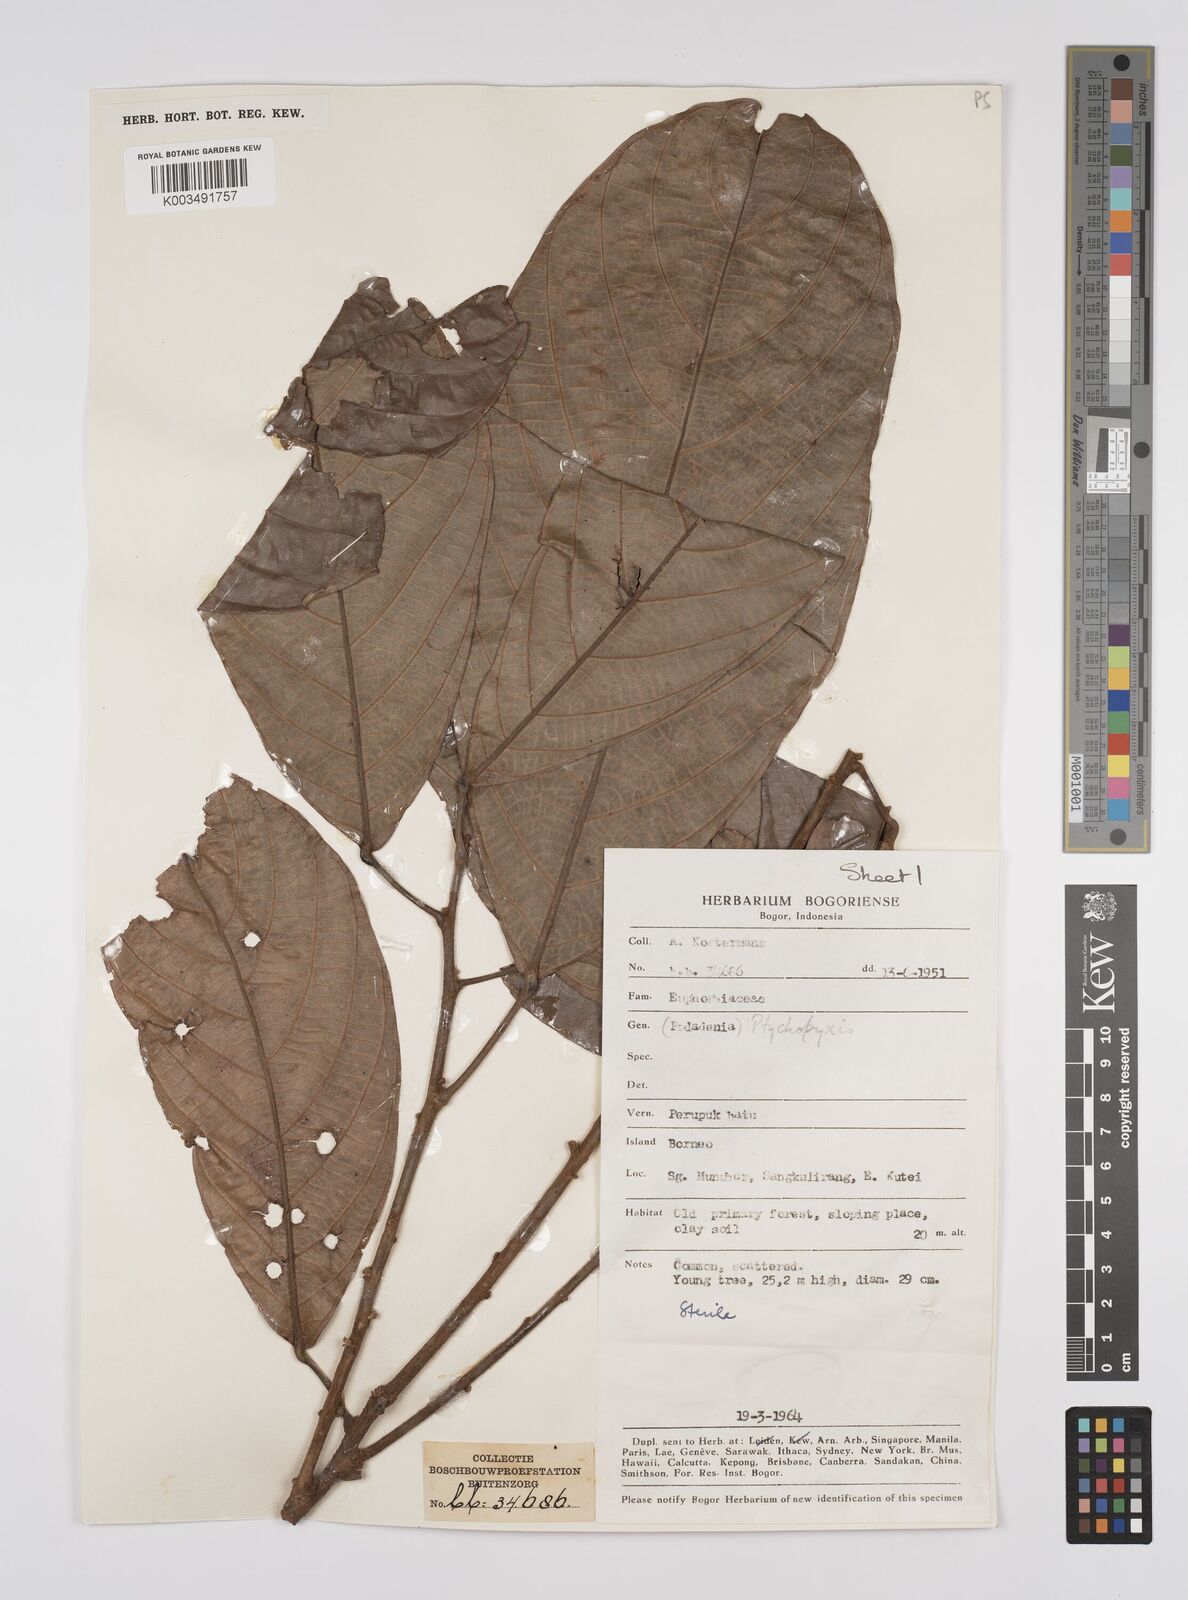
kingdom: Plantae
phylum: Tracheophyta
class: Magnoliopsida
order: Malpighiales
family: Euphorbiaceae
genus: Ptychopyxis
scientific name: Ptychopyxis arborea
